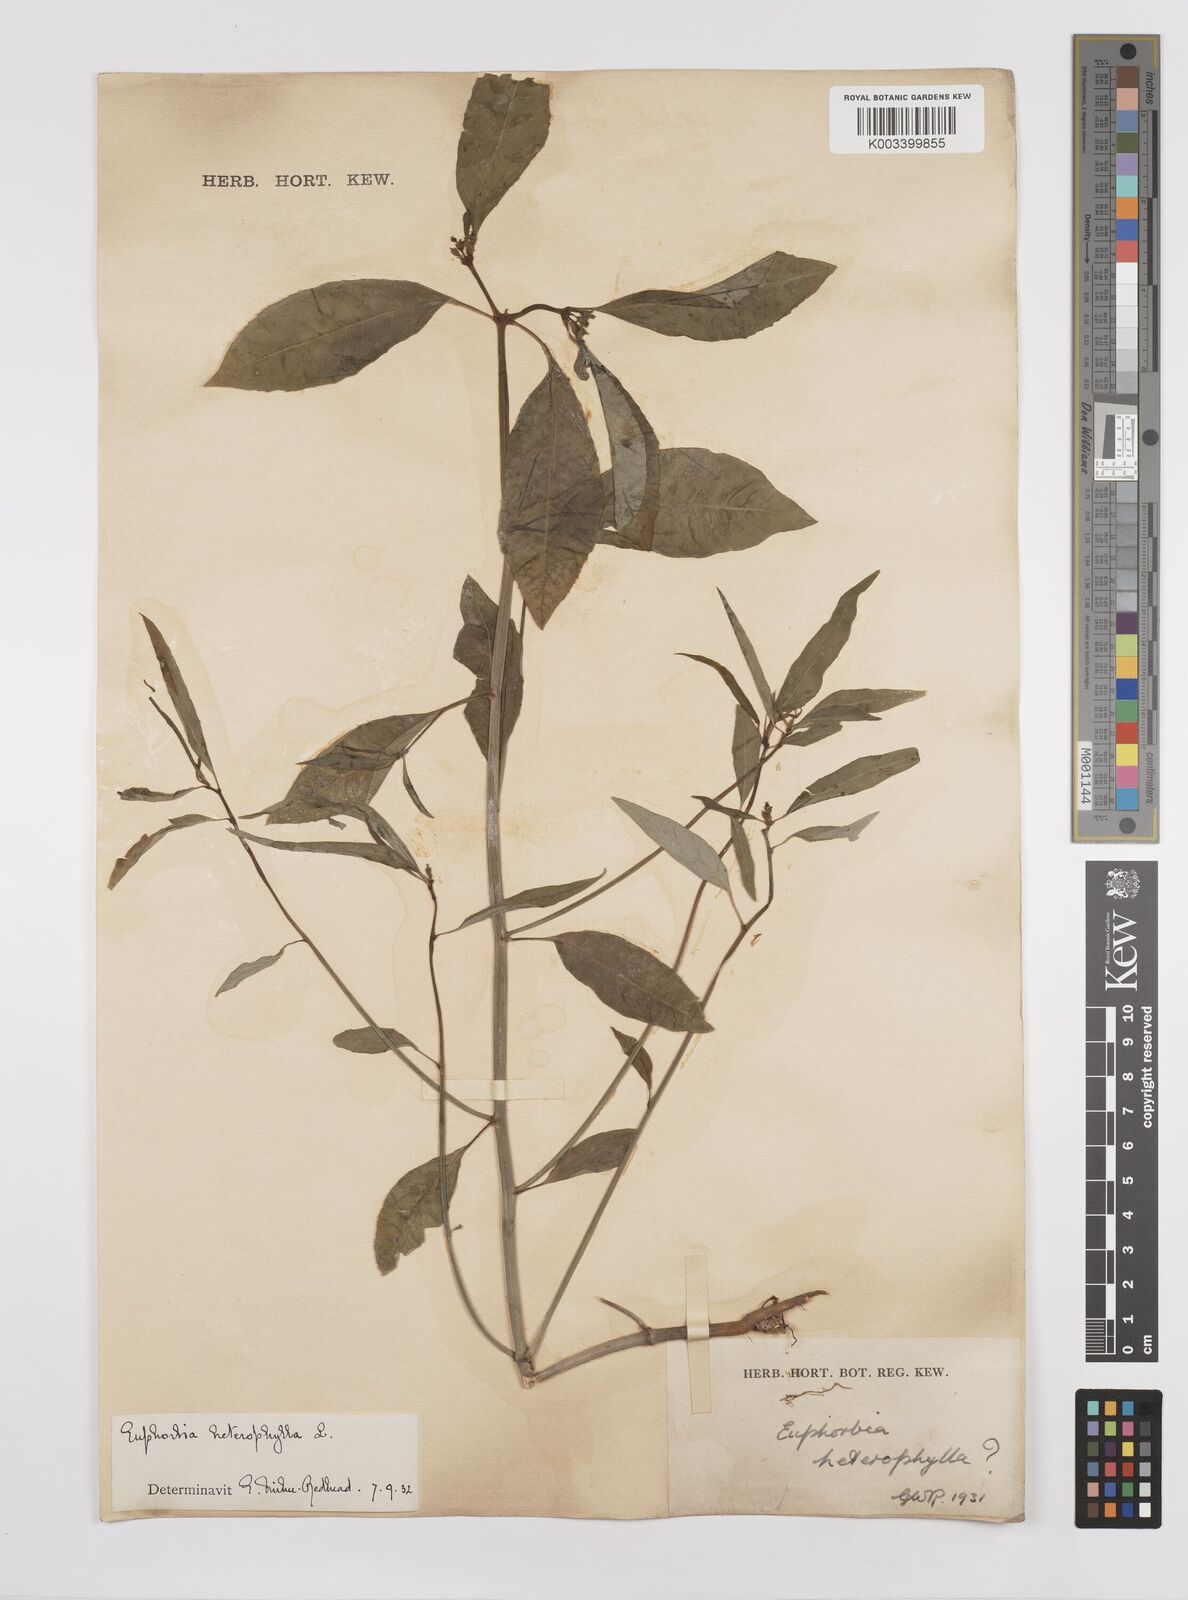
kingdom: Plantae
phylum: Tracheophyta
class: Magnoliopsida
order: Malpighiales
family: Euphorbiaceae
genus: Euphorbia
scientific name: Euphorbia heterophylla
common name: Mexican fireplant
